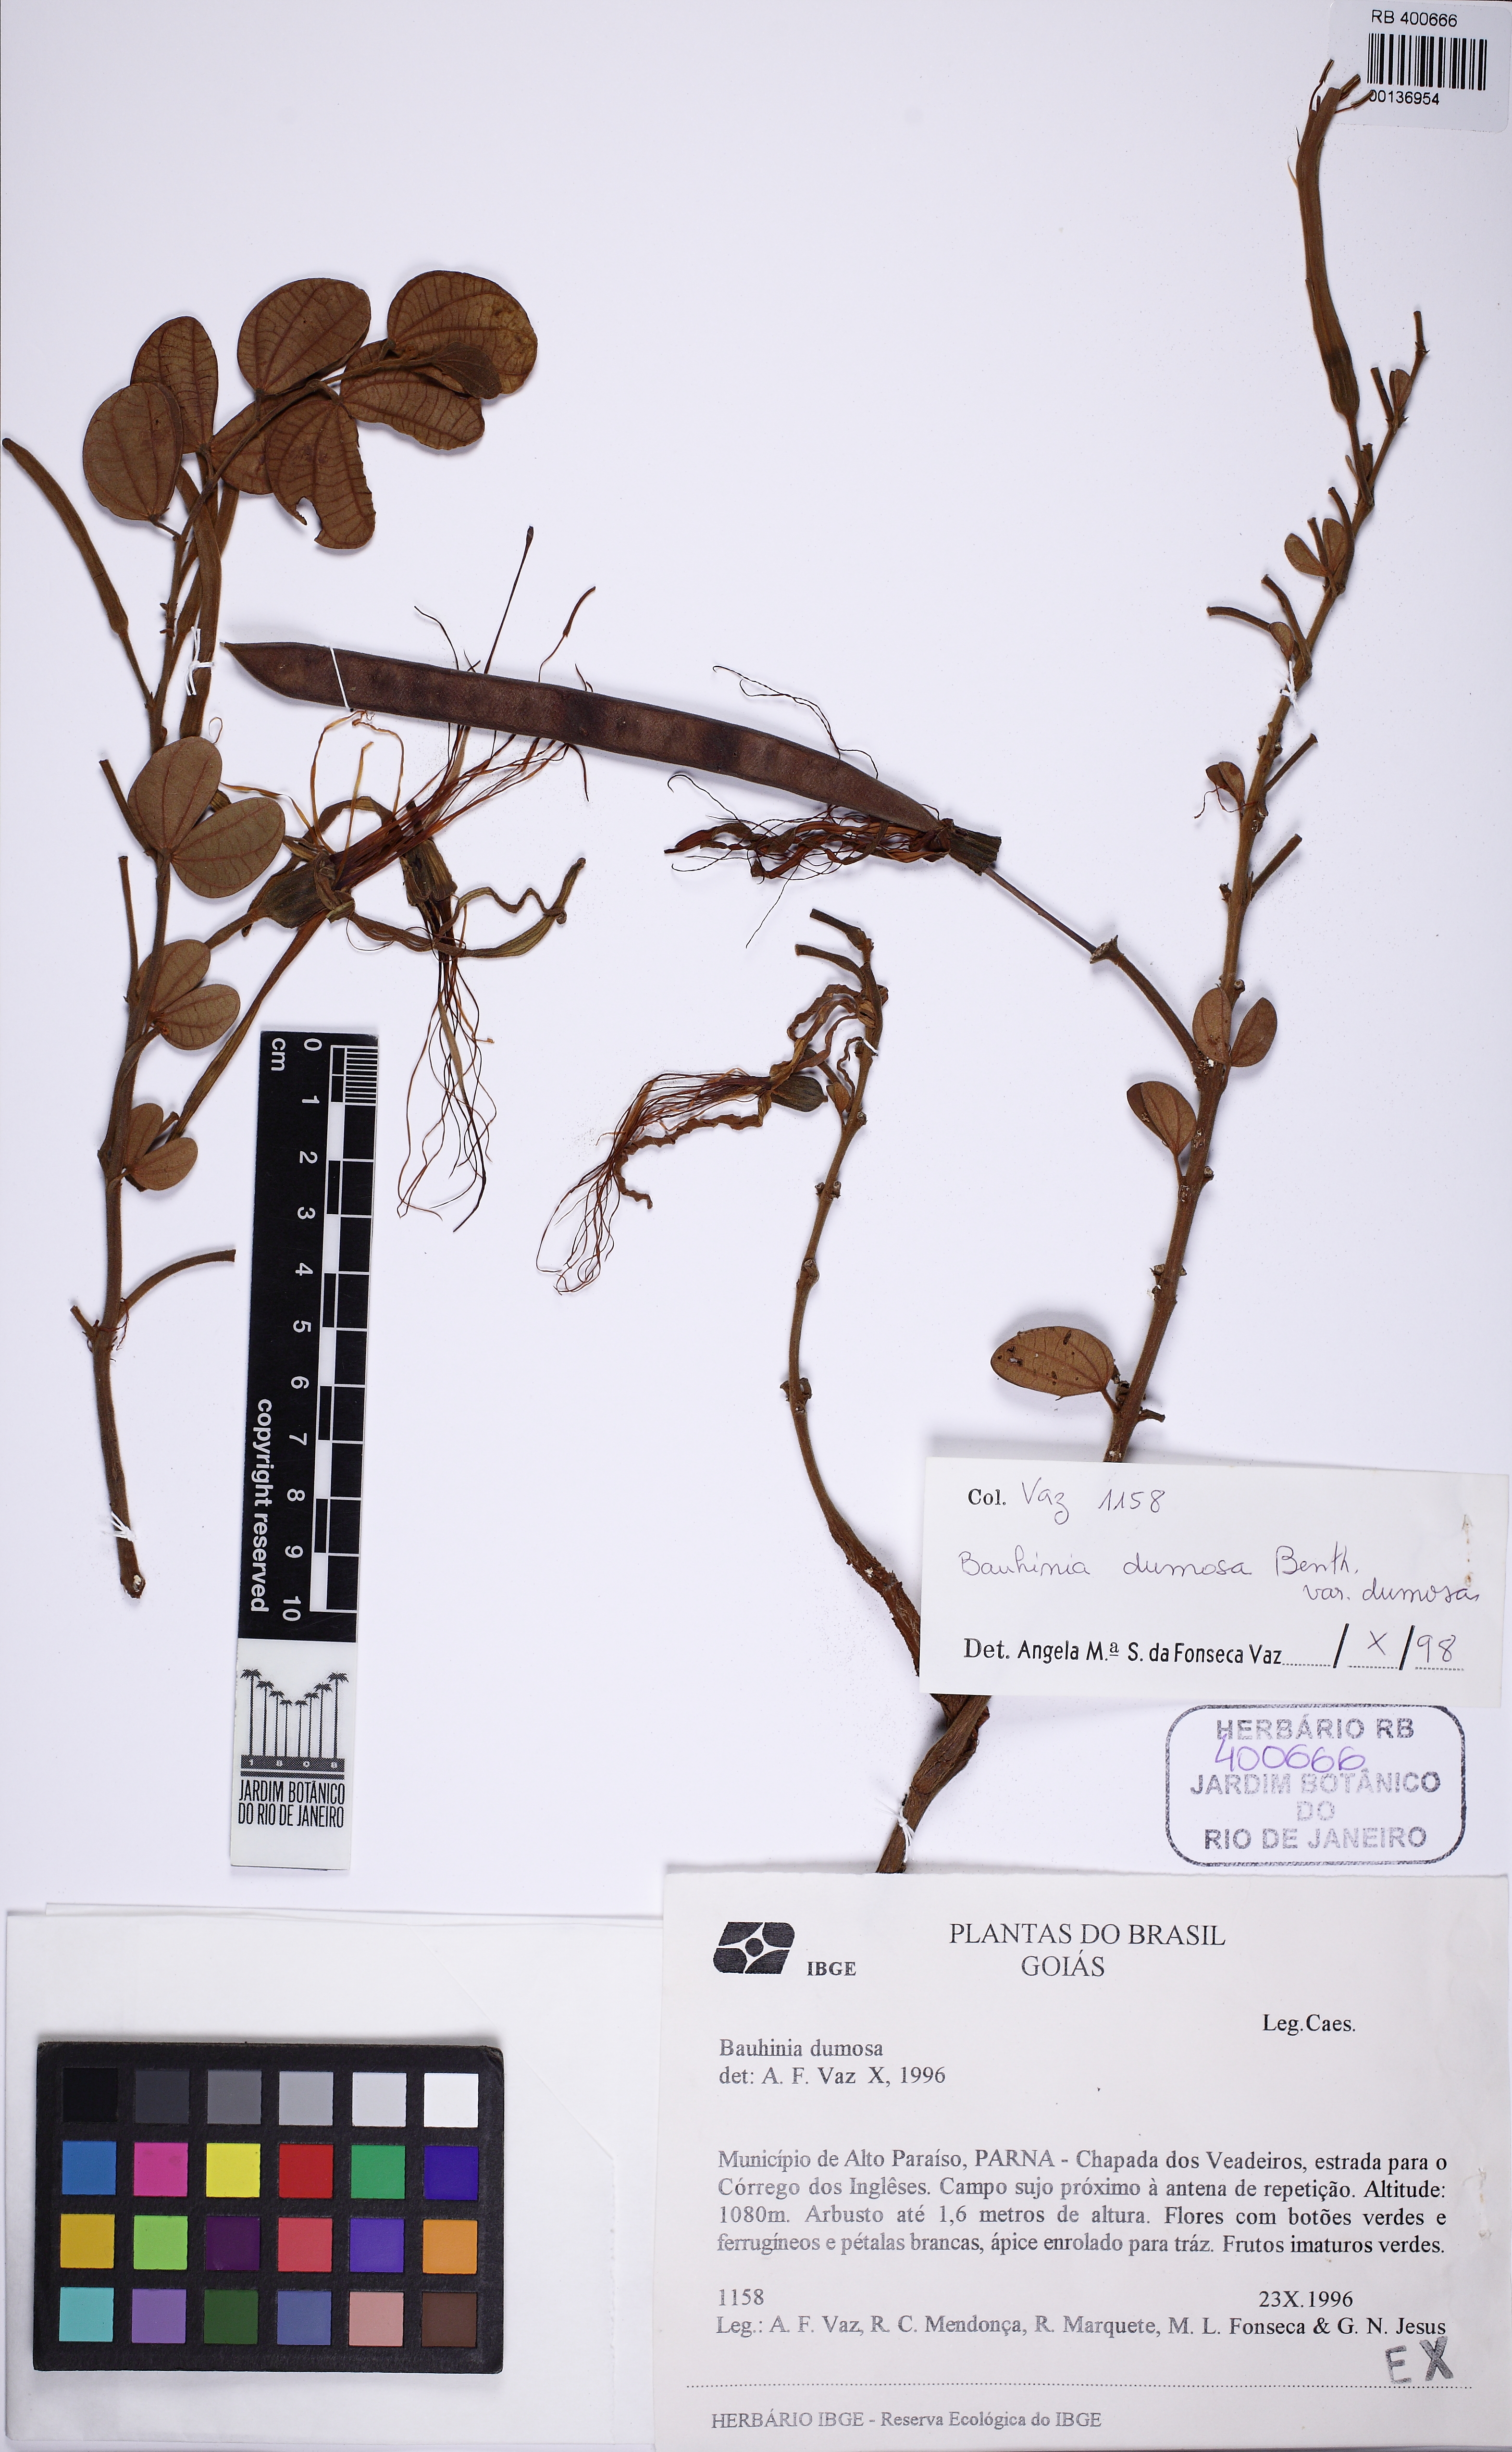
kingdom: Plantae
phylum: Tracheophyta
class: Magnoliopsida
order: Fabales
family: Fabaceae
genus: Bauhinia
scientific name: Bauhinia dumosa
